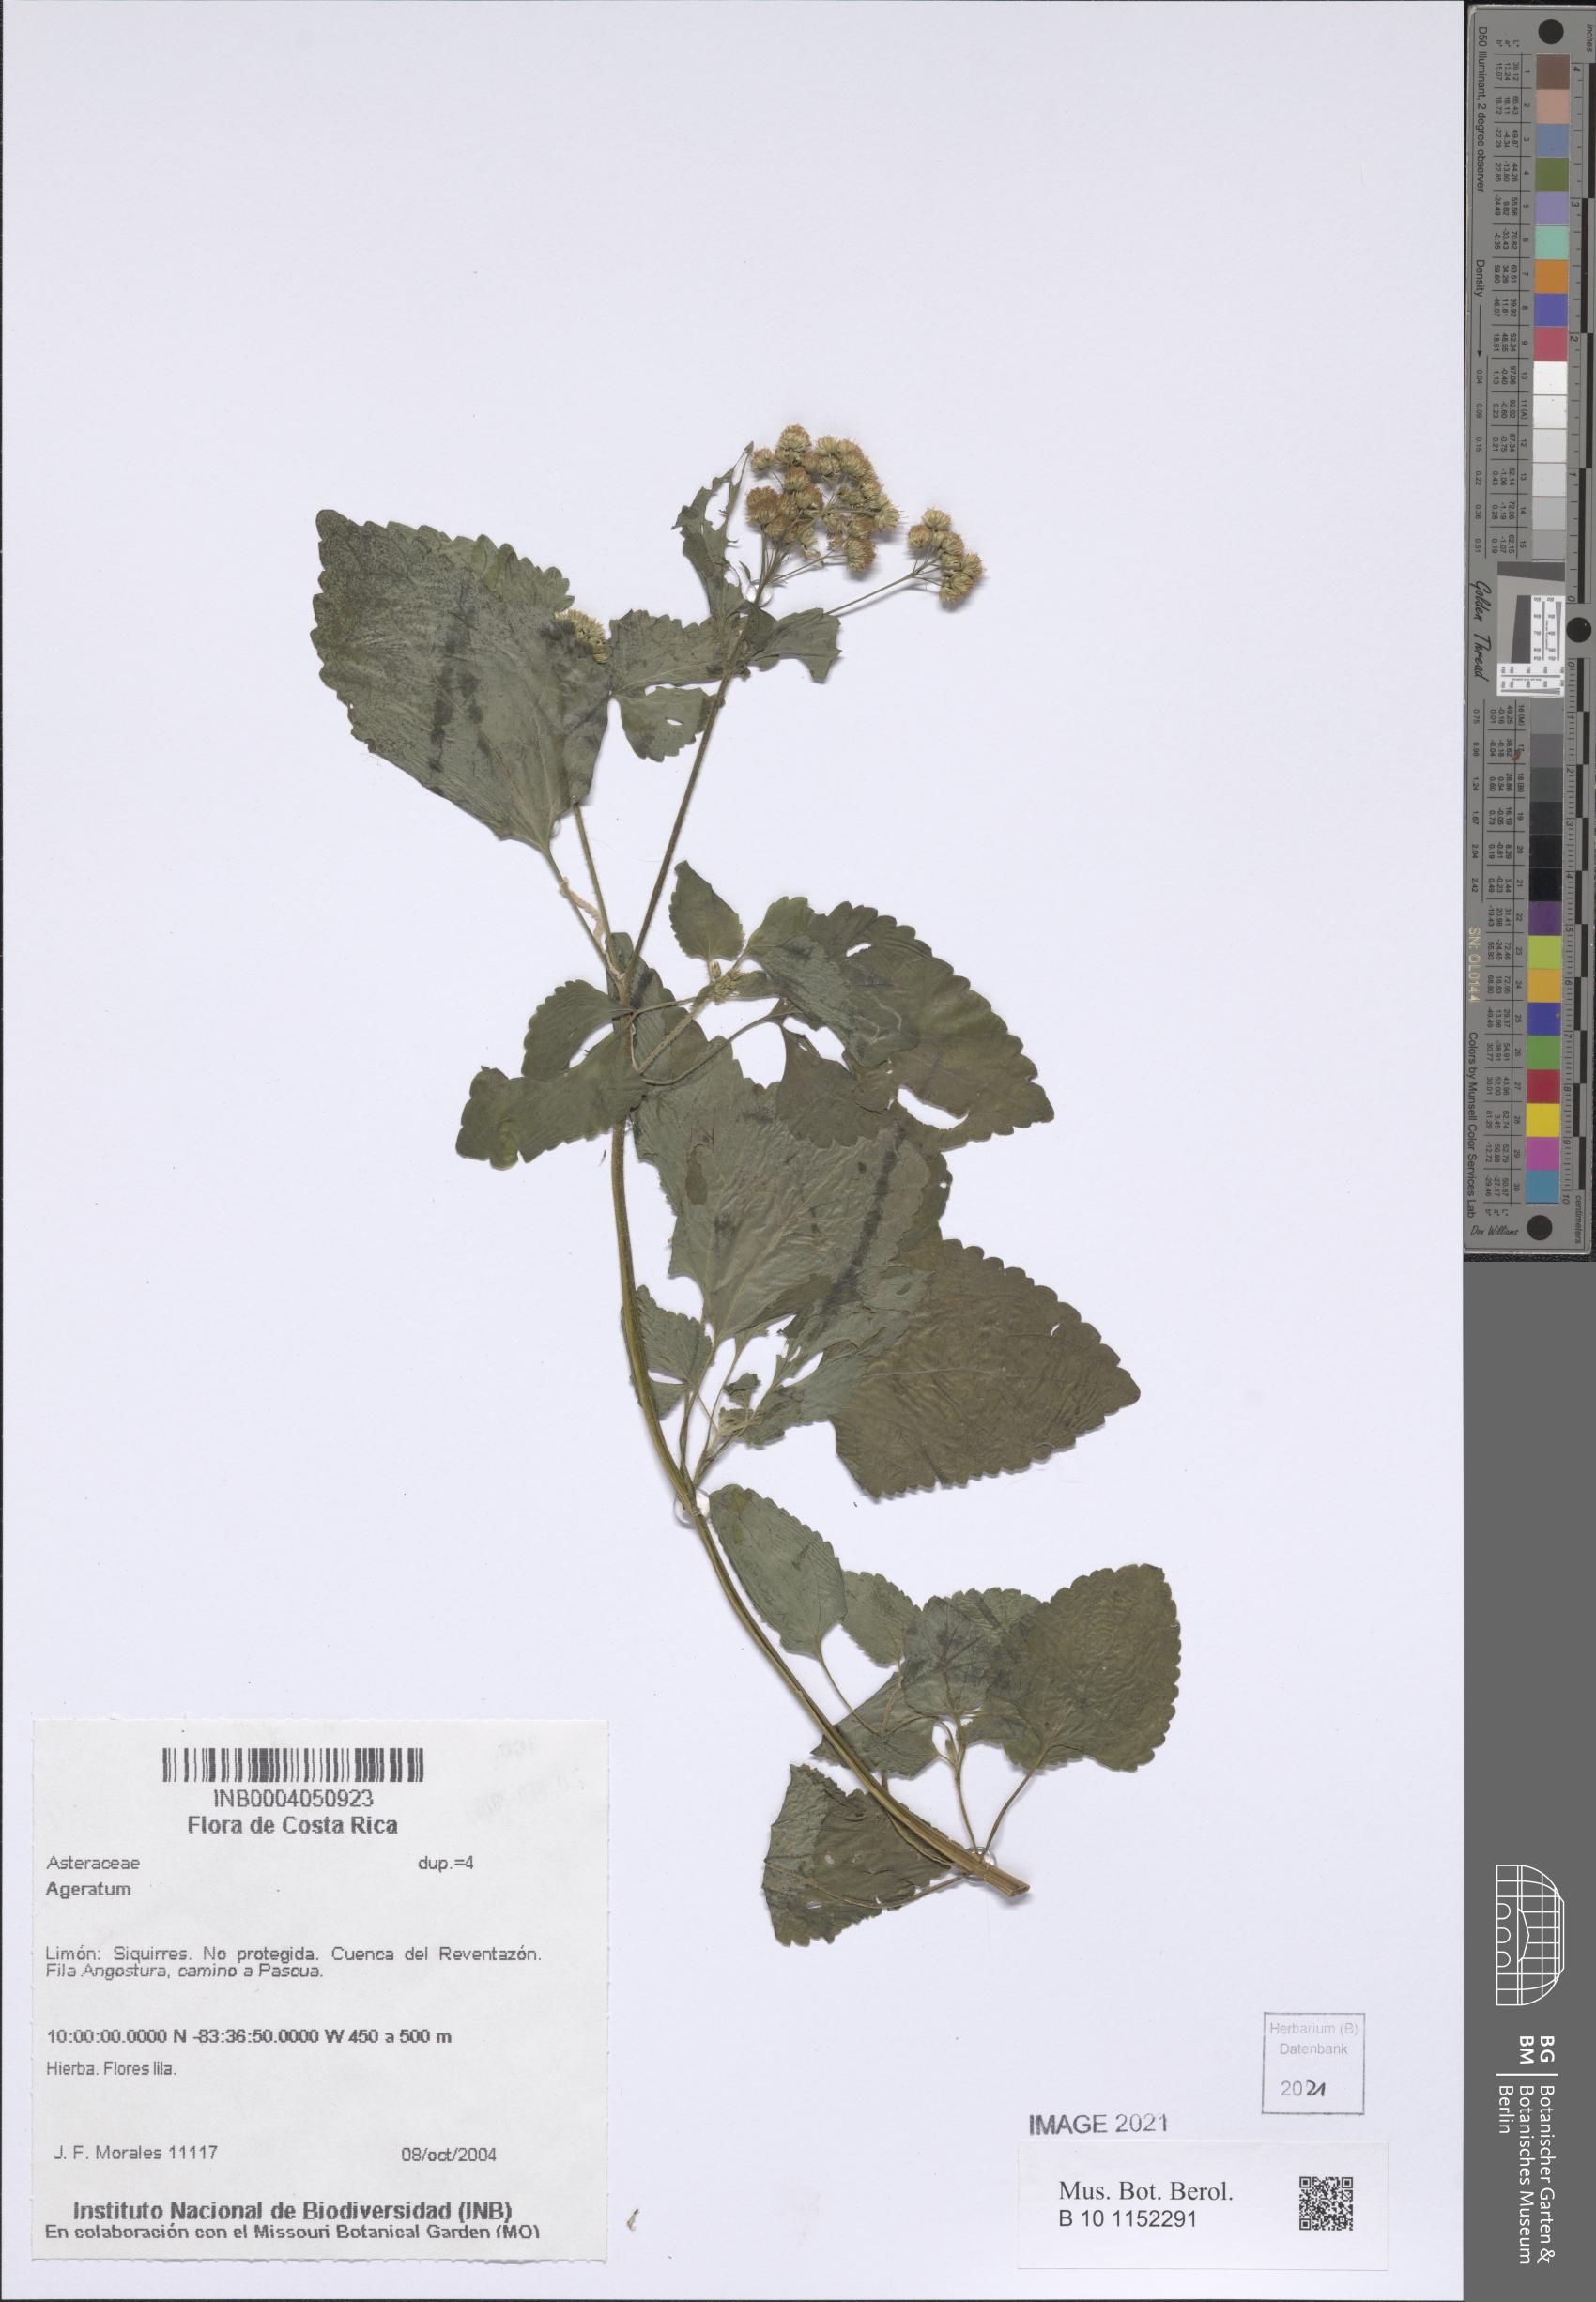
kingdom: Plantae
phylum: Tracheophyta
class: Magnoliopsida
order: Asterales
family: Asteraceae
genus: Ageratum
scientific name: Ageratum
